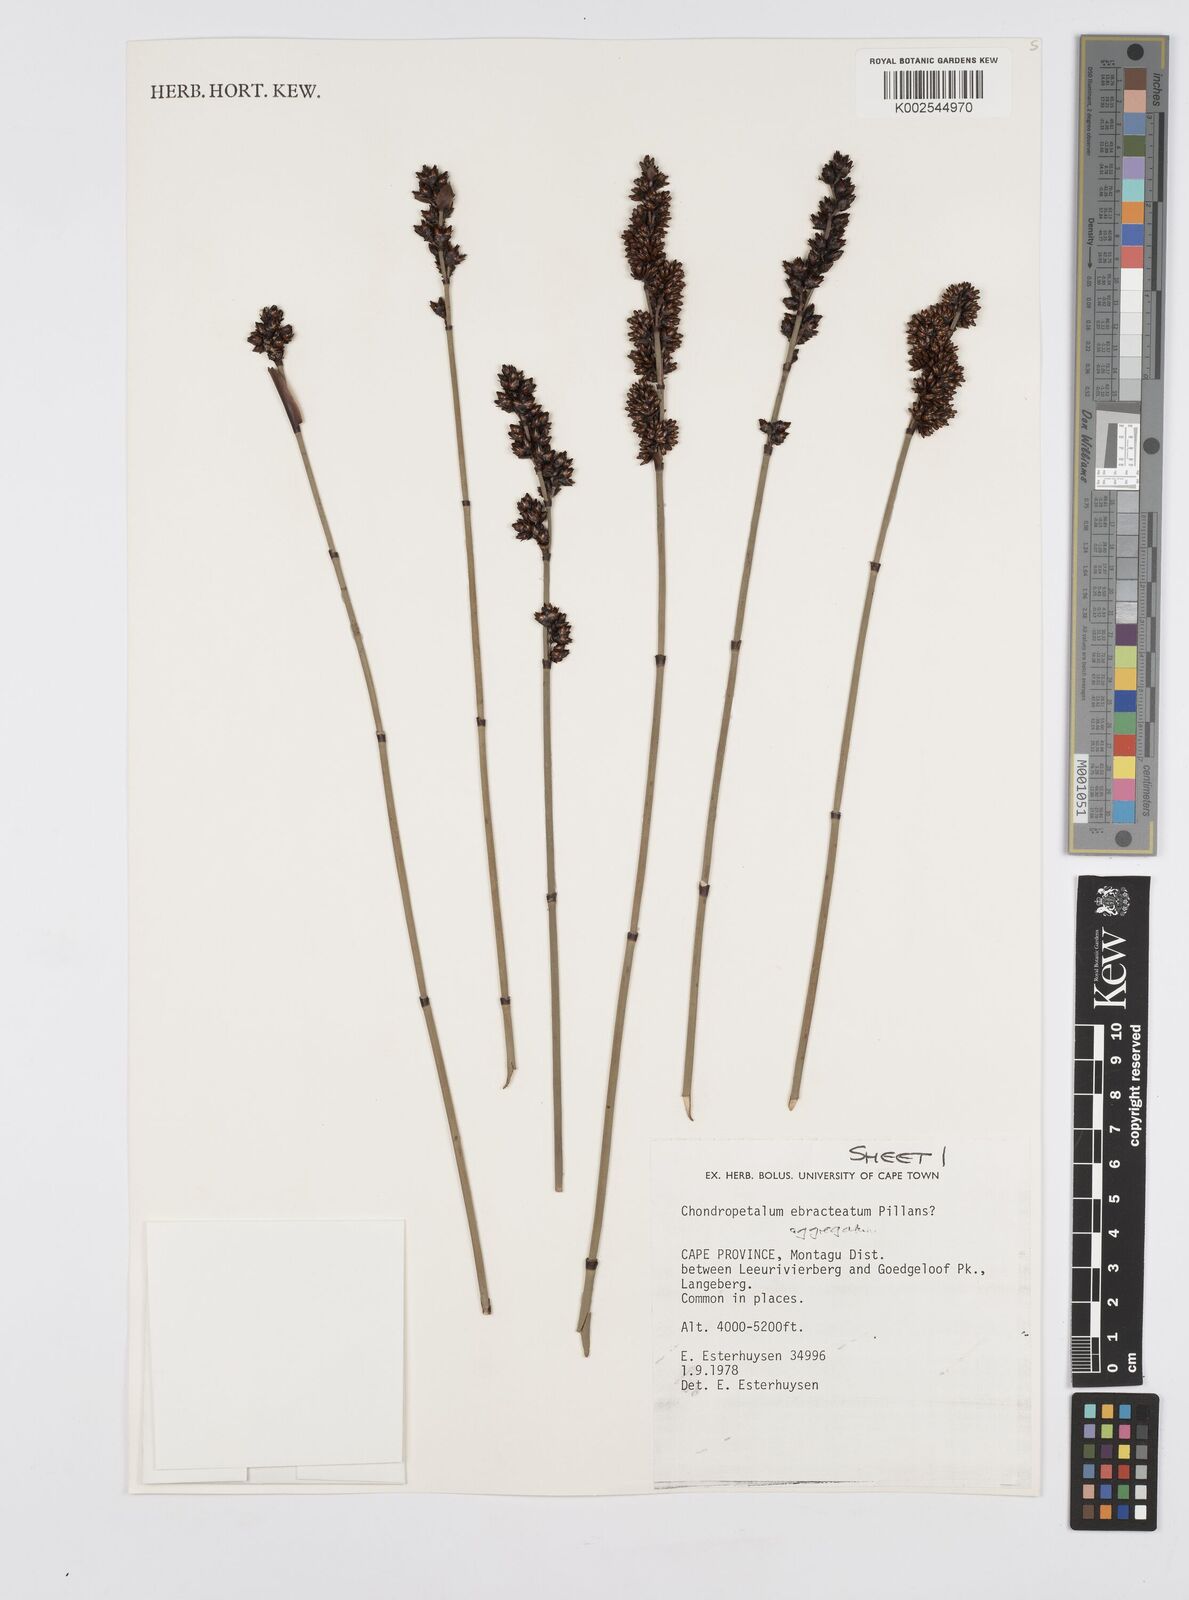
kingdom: Plantae
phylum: Tracheophyta
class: Liliopsida
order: Poales
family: Restionaceae
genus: Elegia
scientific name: Elegia aggregata
